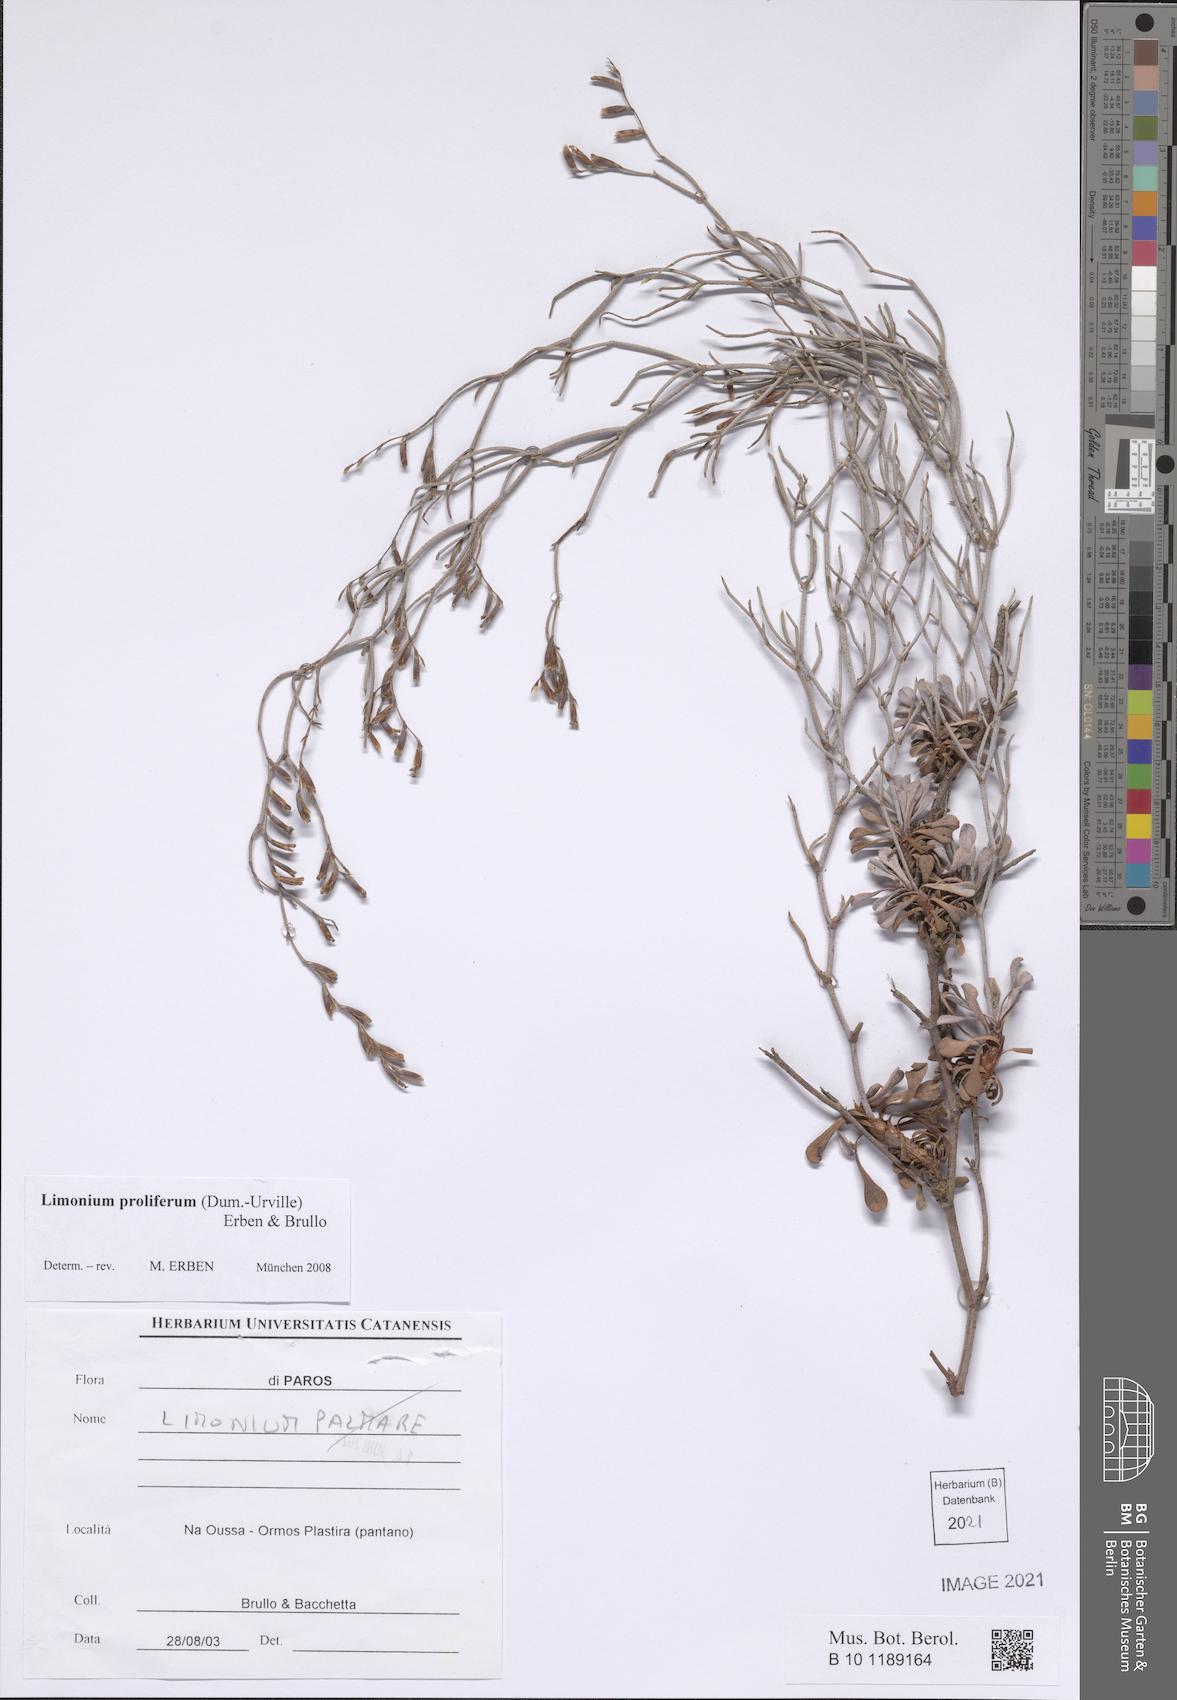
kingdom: Plantae
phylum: Tracheophyta
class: Magnoliopsida
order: Caryophyllales
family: Plumbaginaceae
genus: Limonium
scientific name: Limonium proliferum
